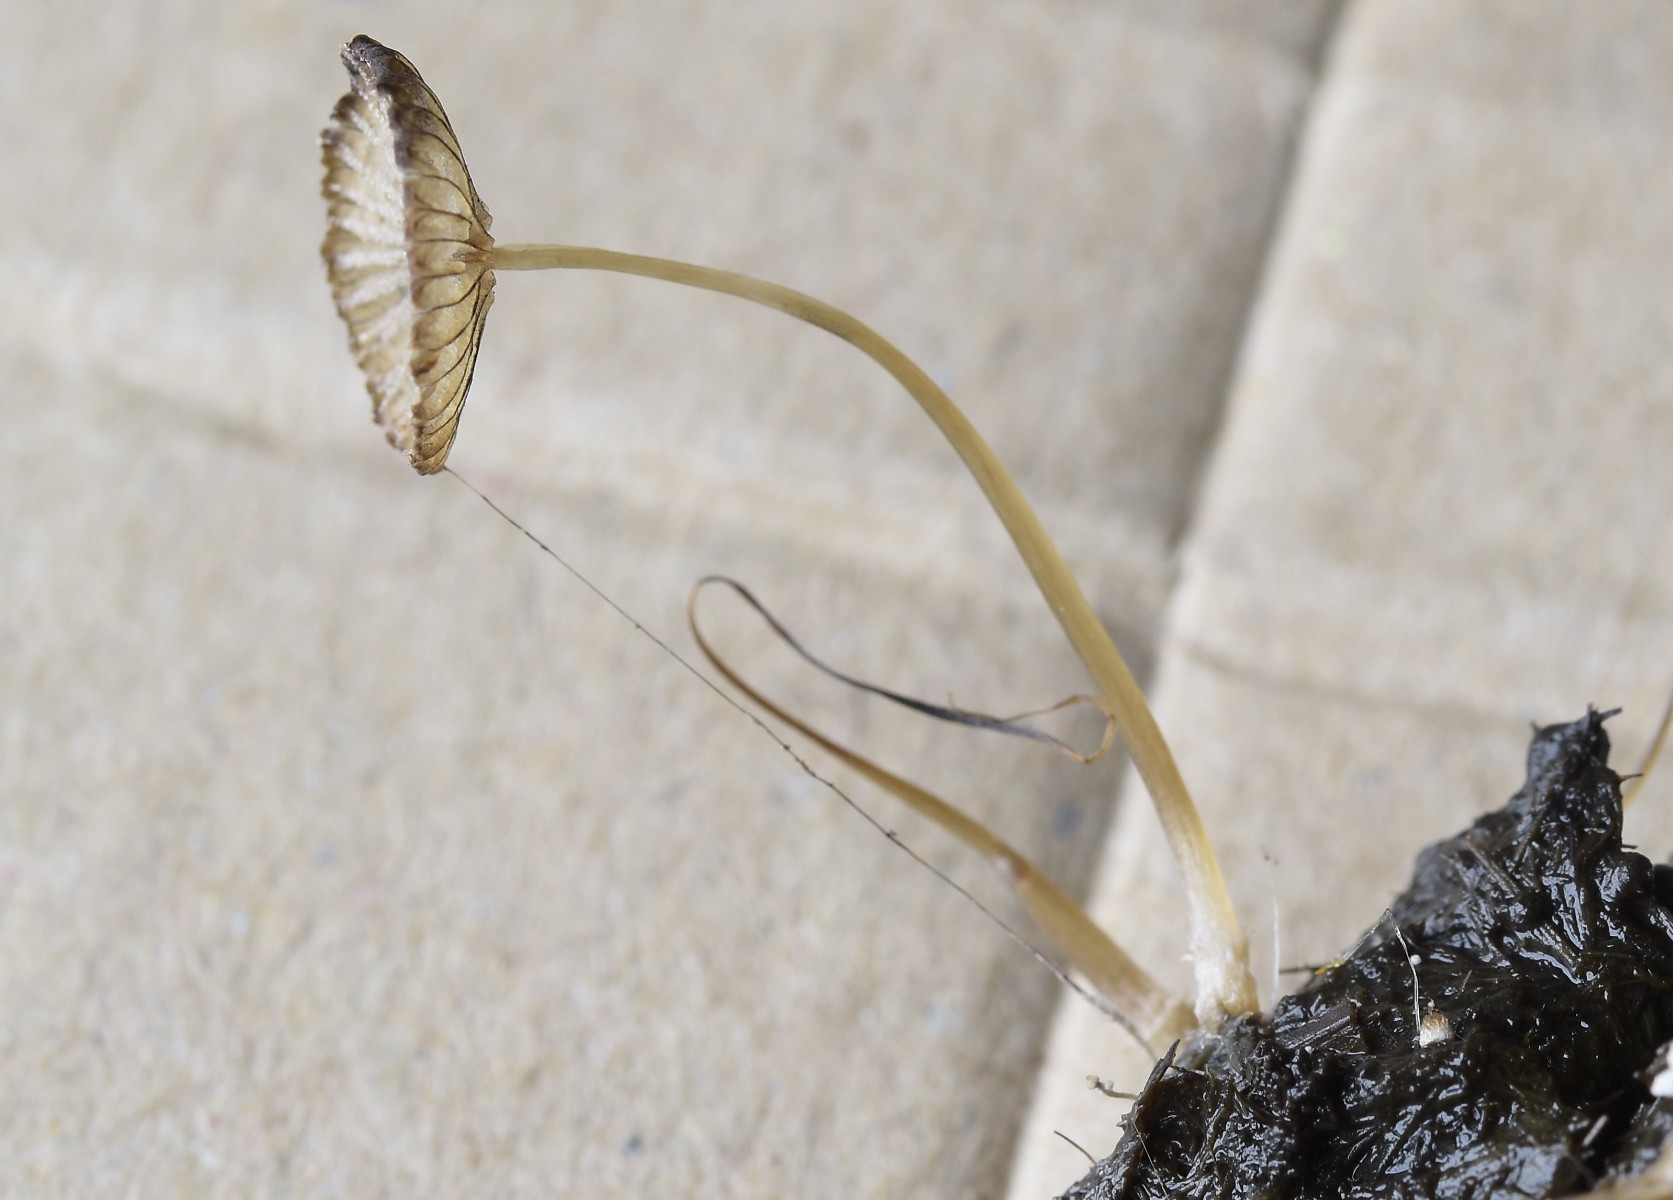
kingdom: Fungi
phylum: Basidiomycota
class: Agaricomycetes
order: Agaricales
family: Psathyrellaceae
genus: Narcissea
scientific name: Narcissea ephemeroides
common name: ring-blækhat
